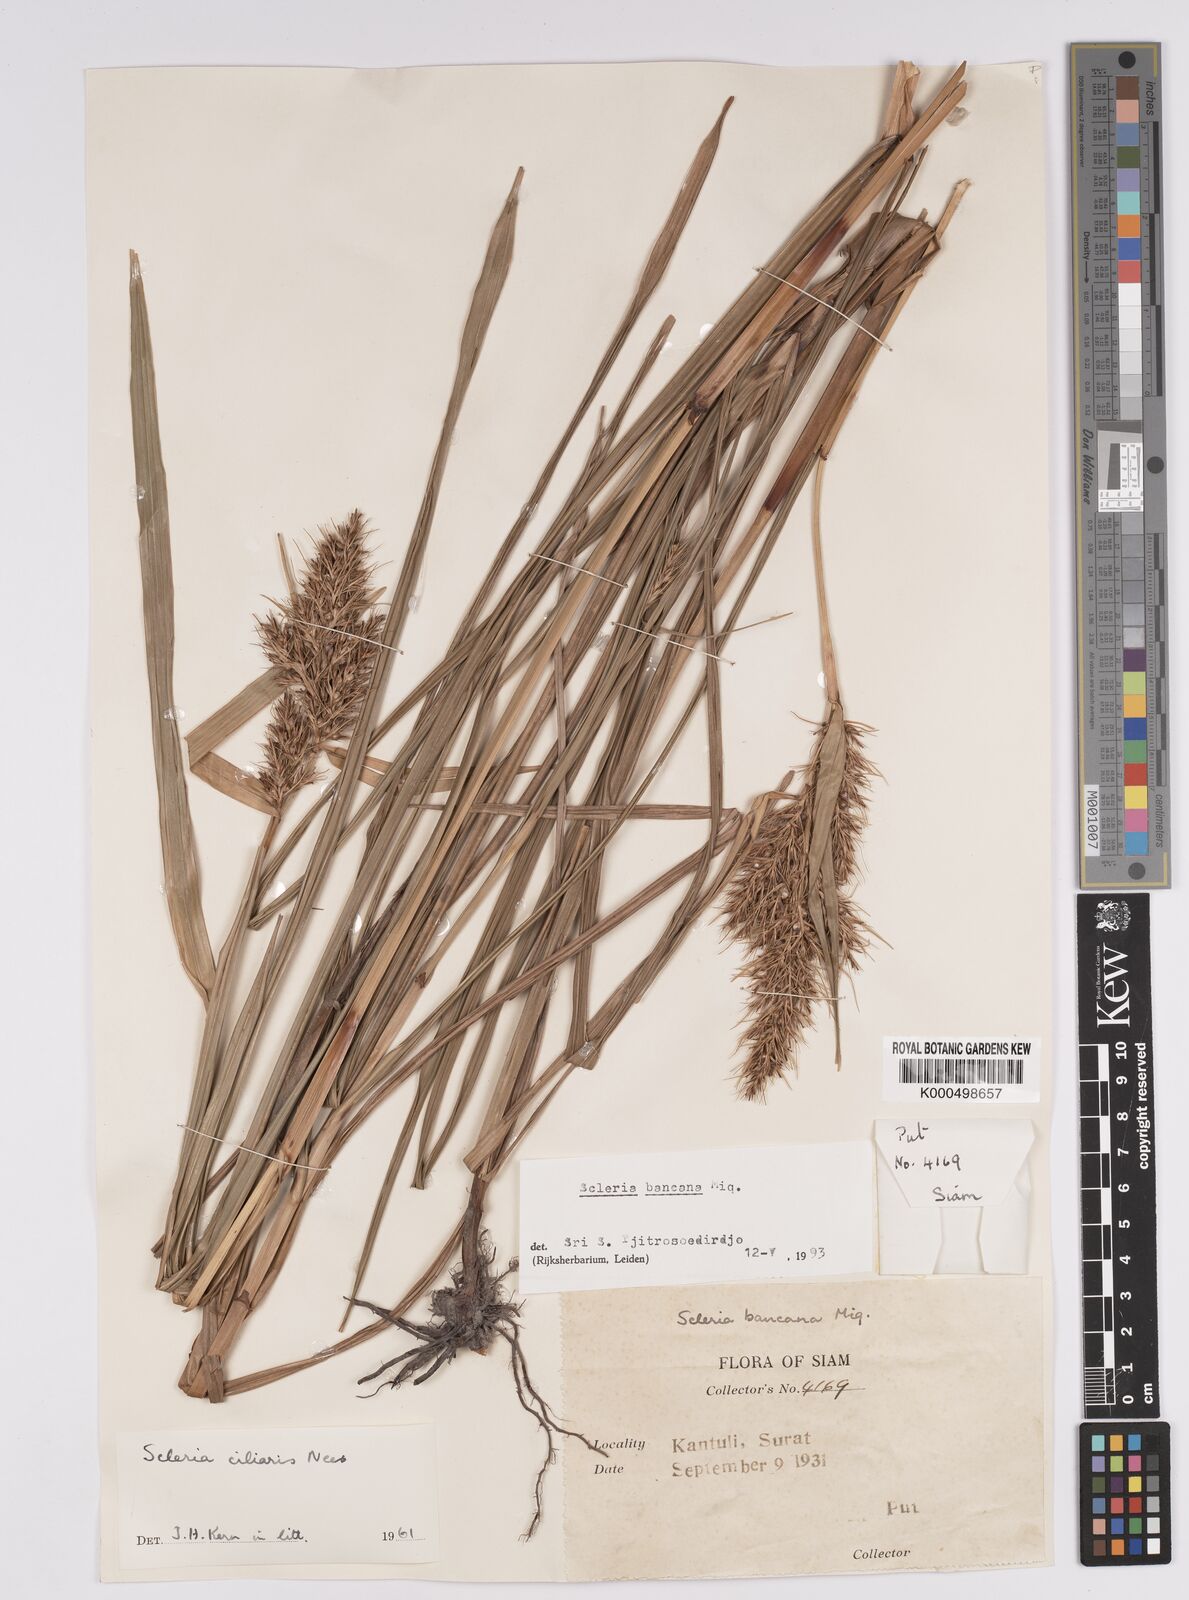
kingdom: Plantae
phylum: Tracheophyta
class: Liliopsida
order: Poales
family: Cyperaceae
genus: Scleria
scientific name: Scleria ciliaris
